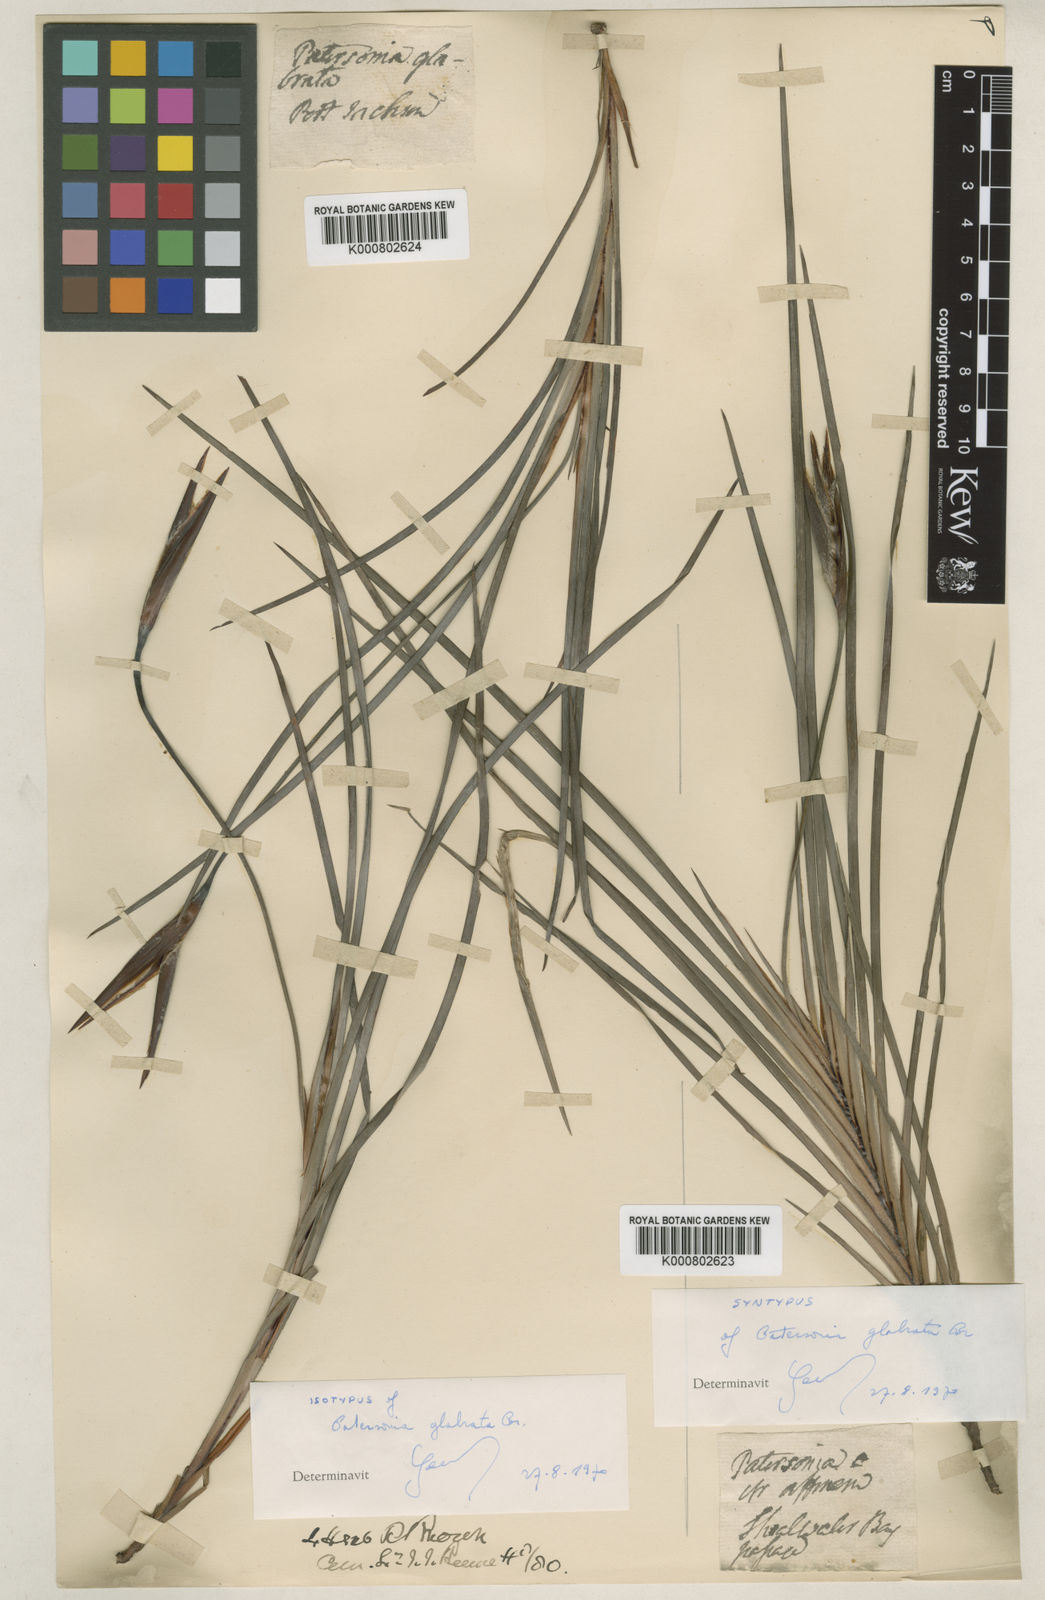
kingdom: Plantae
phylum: Tracheophyta
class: Liliopsida
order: Asparagales
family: Iridaceae
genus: Patersonia
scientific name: Patersonia glabrata
